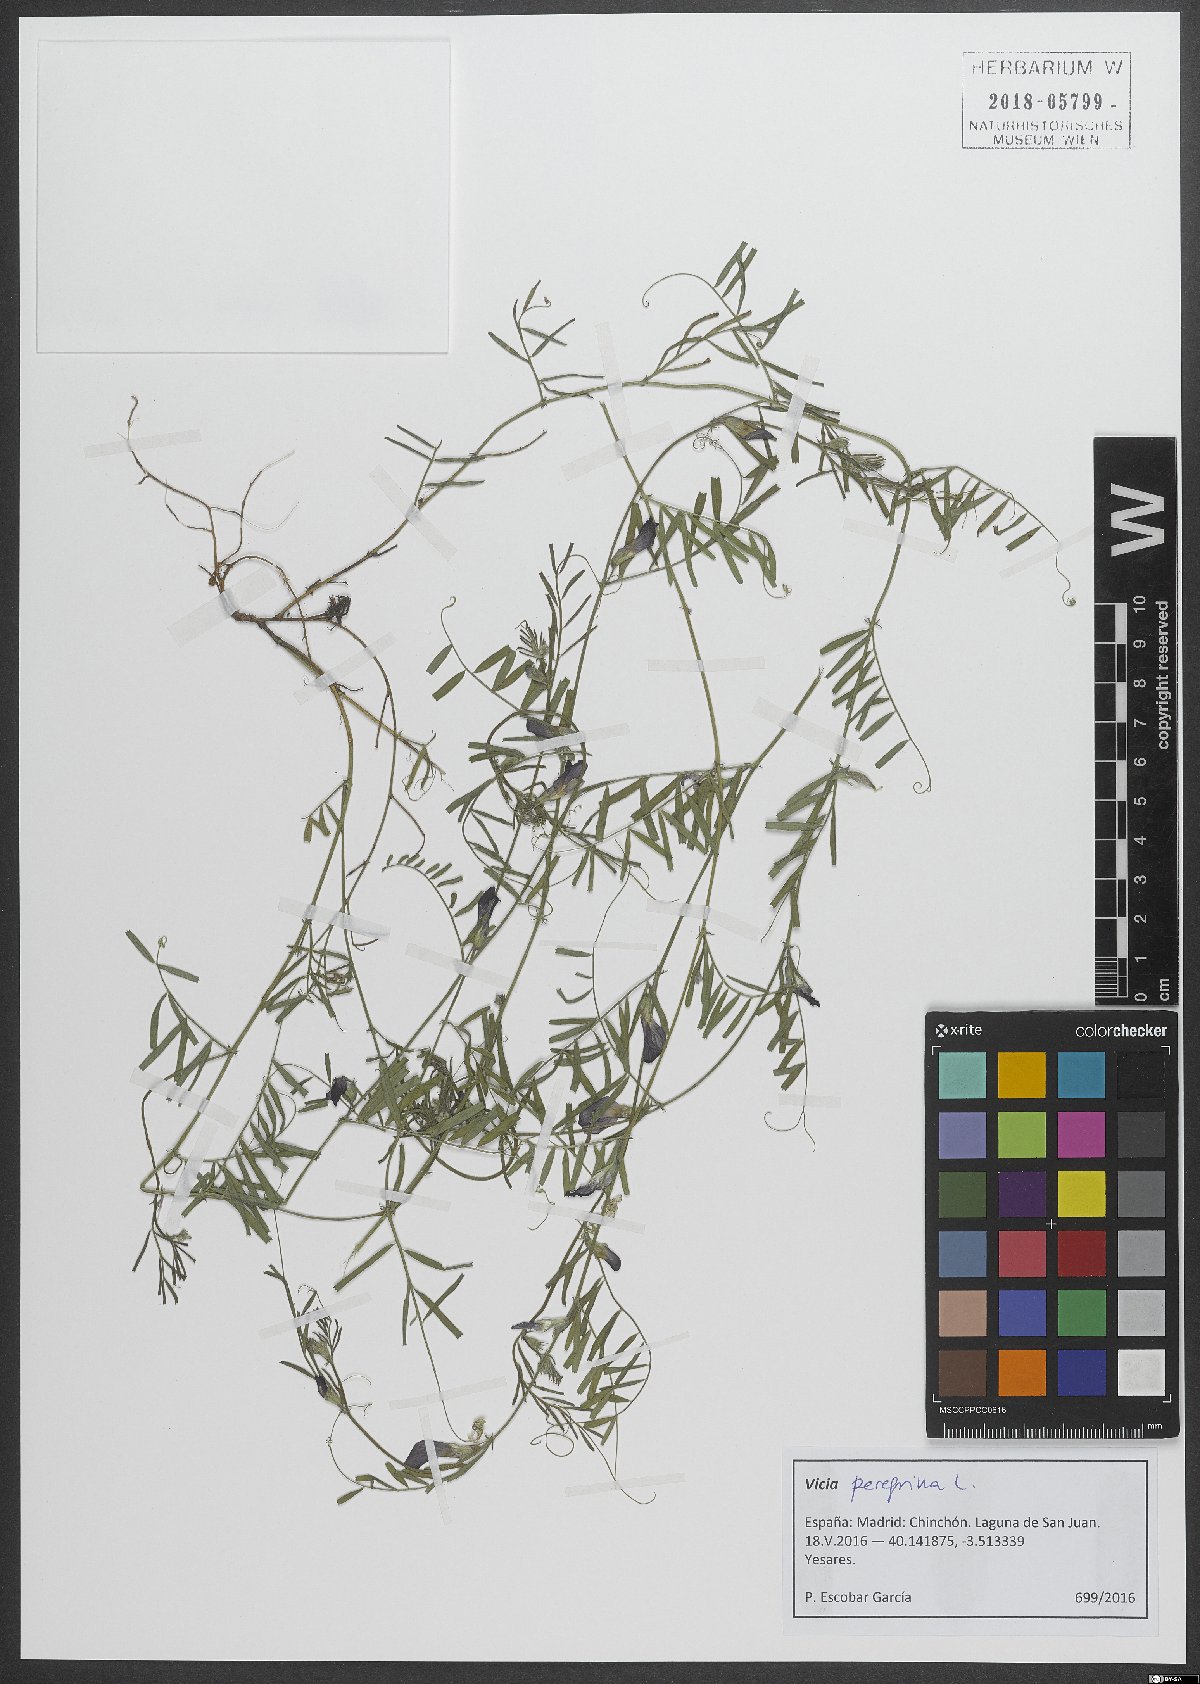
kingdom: Plantae
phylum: Tracheophyta
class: Magnoliopsida
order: Fabales
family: Fabaceae
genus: Vicia
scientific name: Vicia peregrina
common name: Broad-pod vetch
